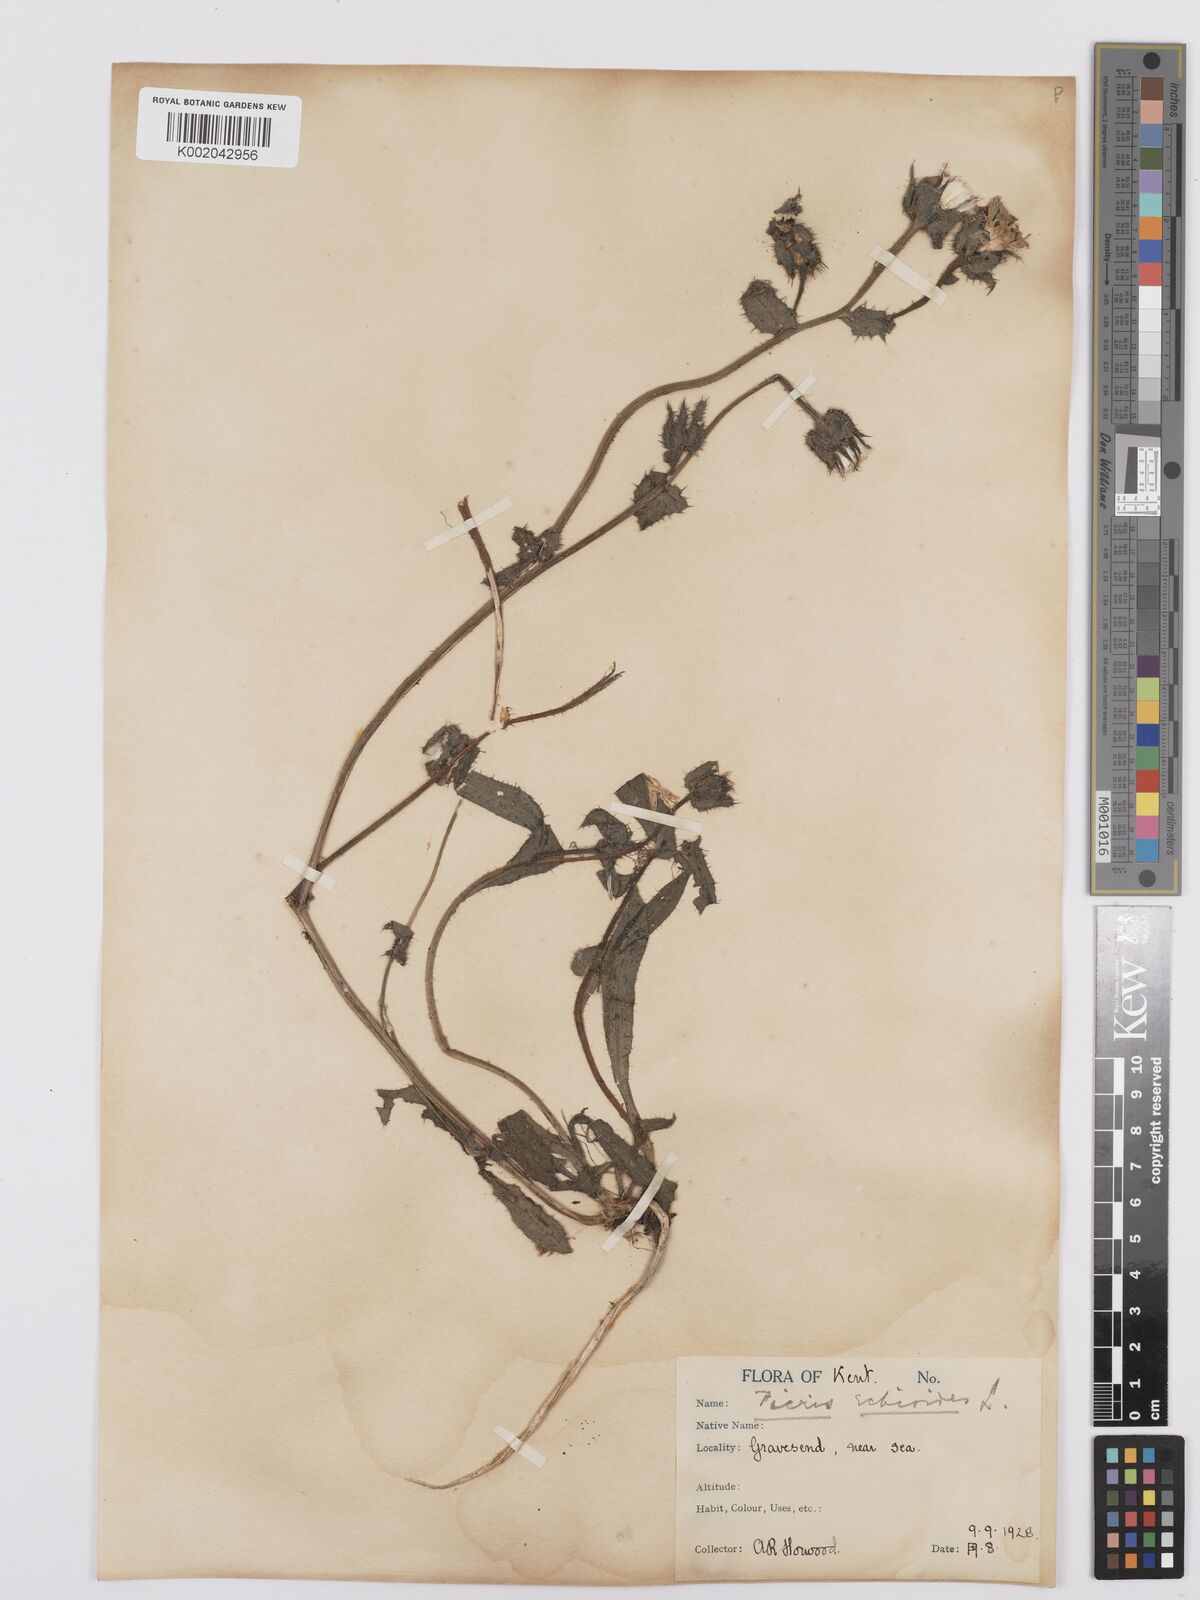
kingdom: Plantae
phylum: Tracheophyta
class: Magnoliopsida
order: Asterales
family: Asteraceae
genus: Helminthotheca
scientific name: Helminthotheca echioides
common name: Ox-tongue
